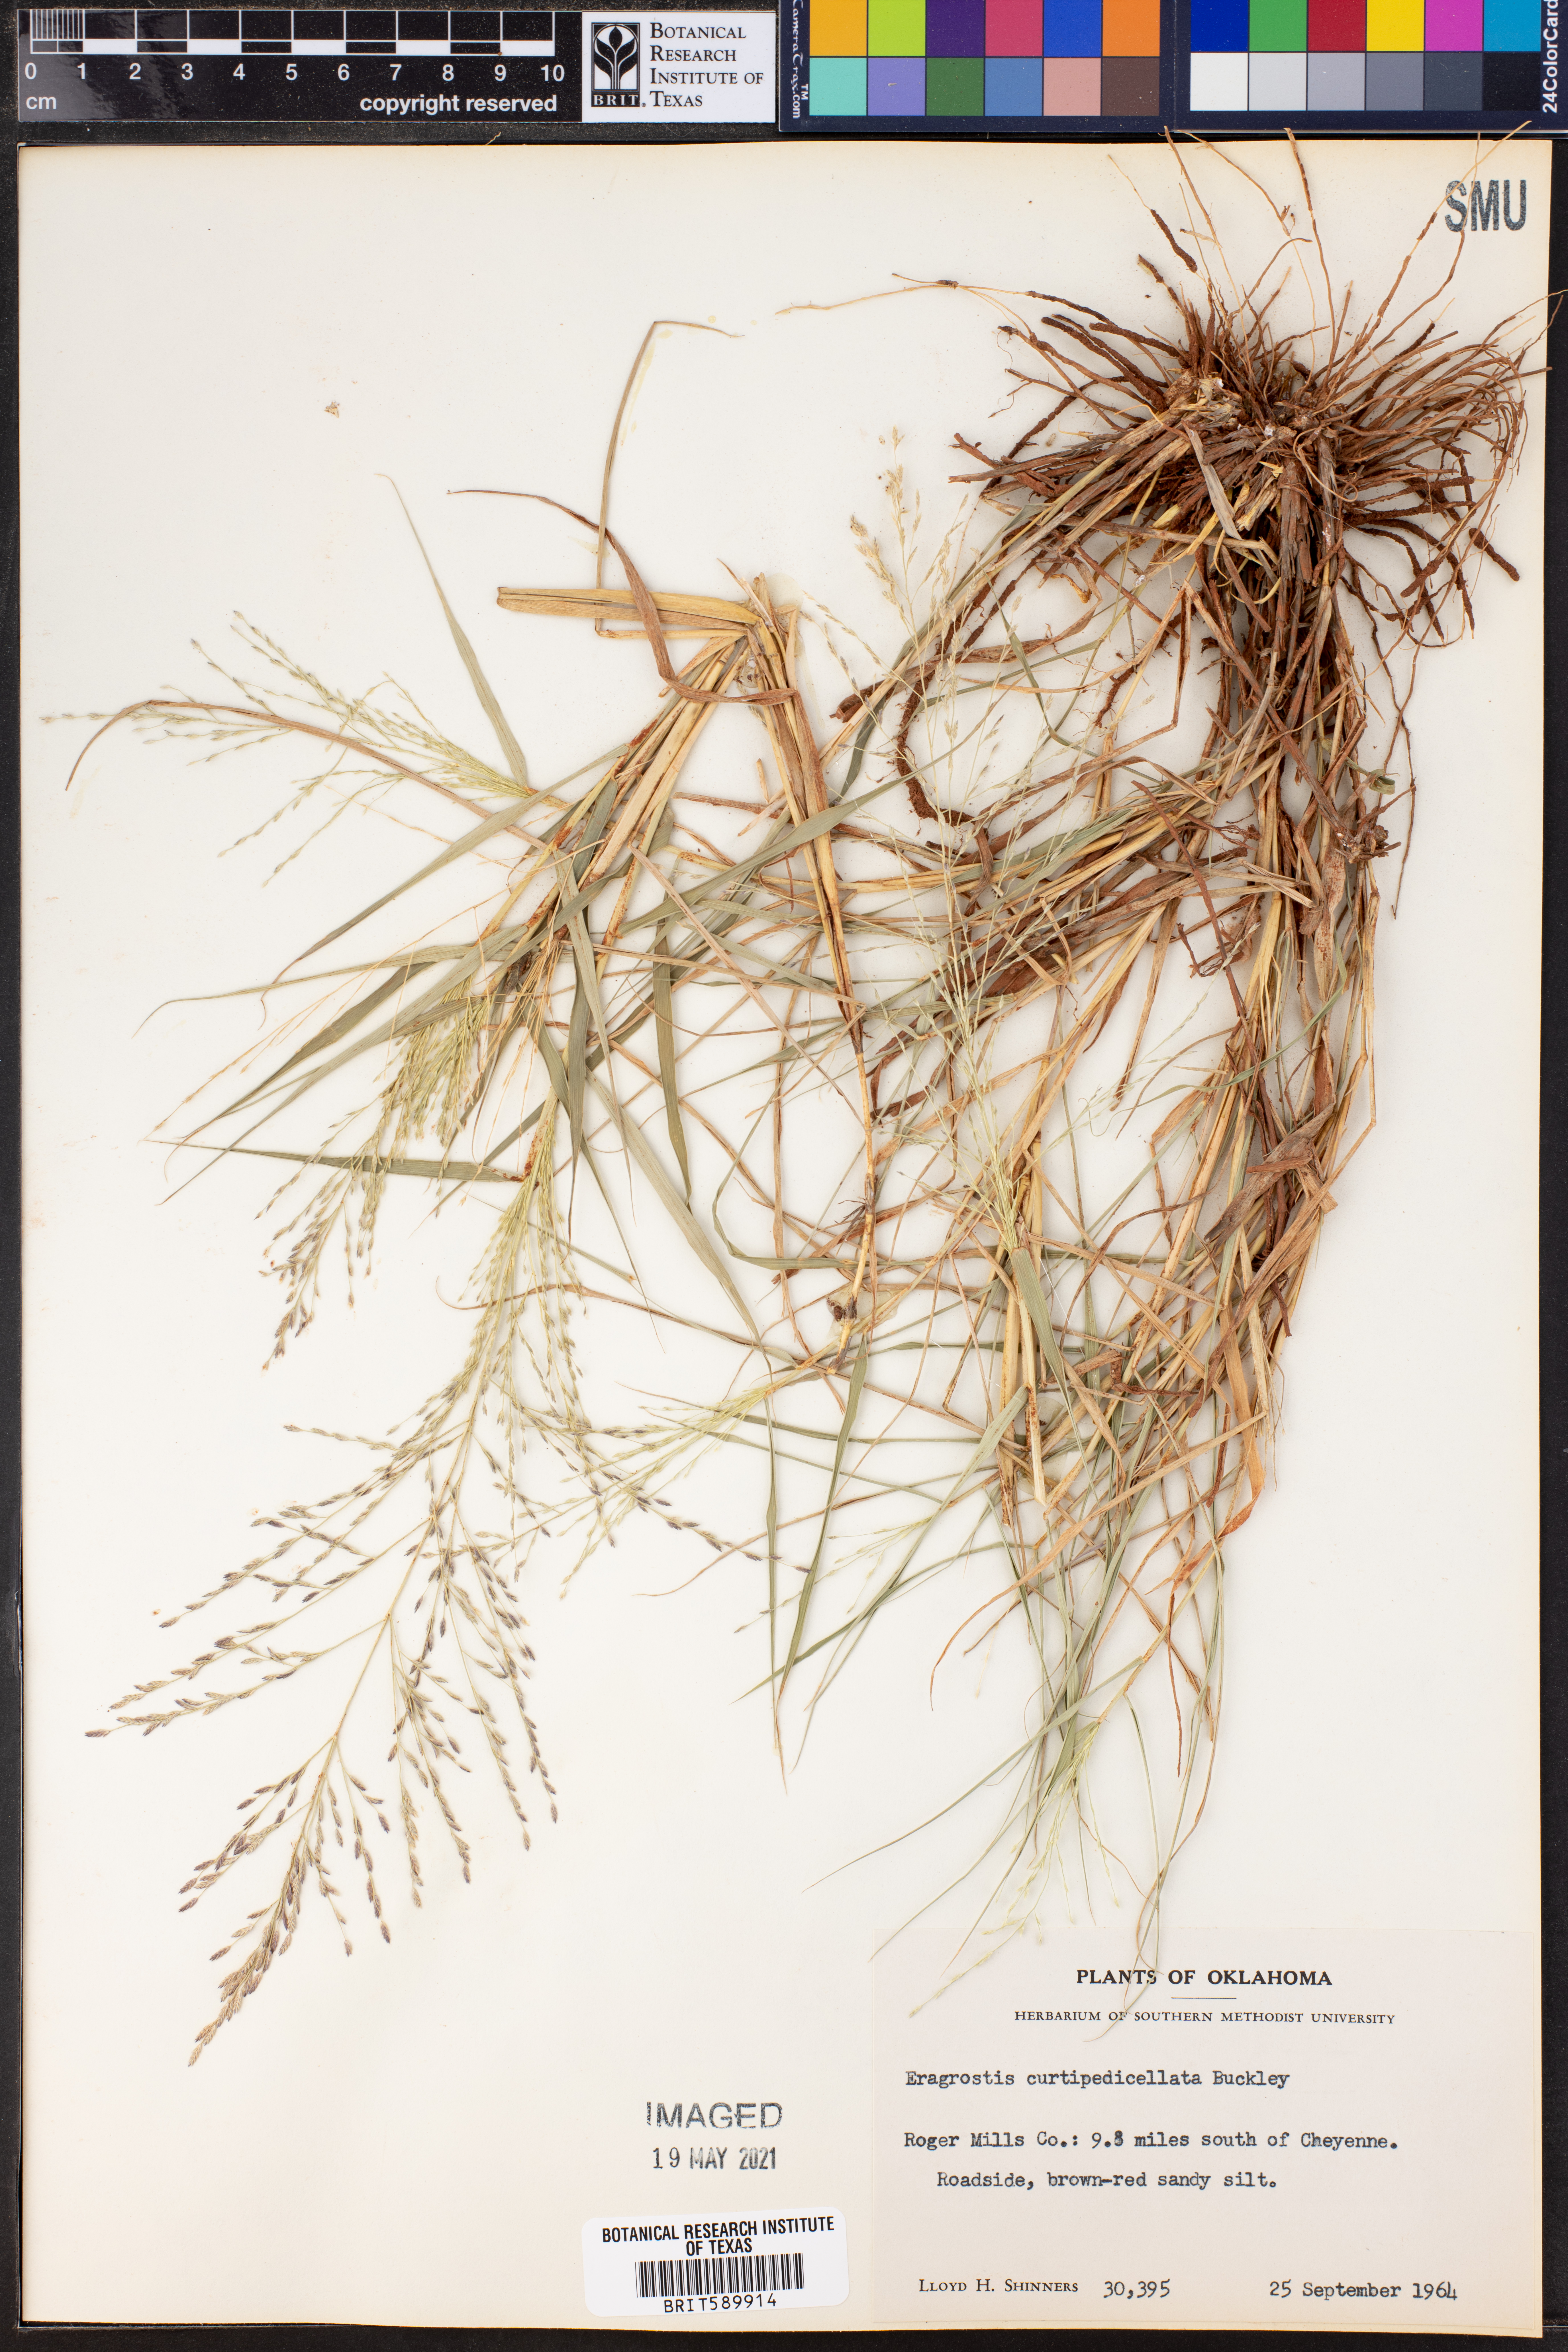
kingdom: Plantae
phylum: Tracheophyta
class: Liliopsida
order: Poales
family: Poaceae
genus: Eragrostis
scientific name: Eragrostis curtipedicellata
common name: Gummy love grass
